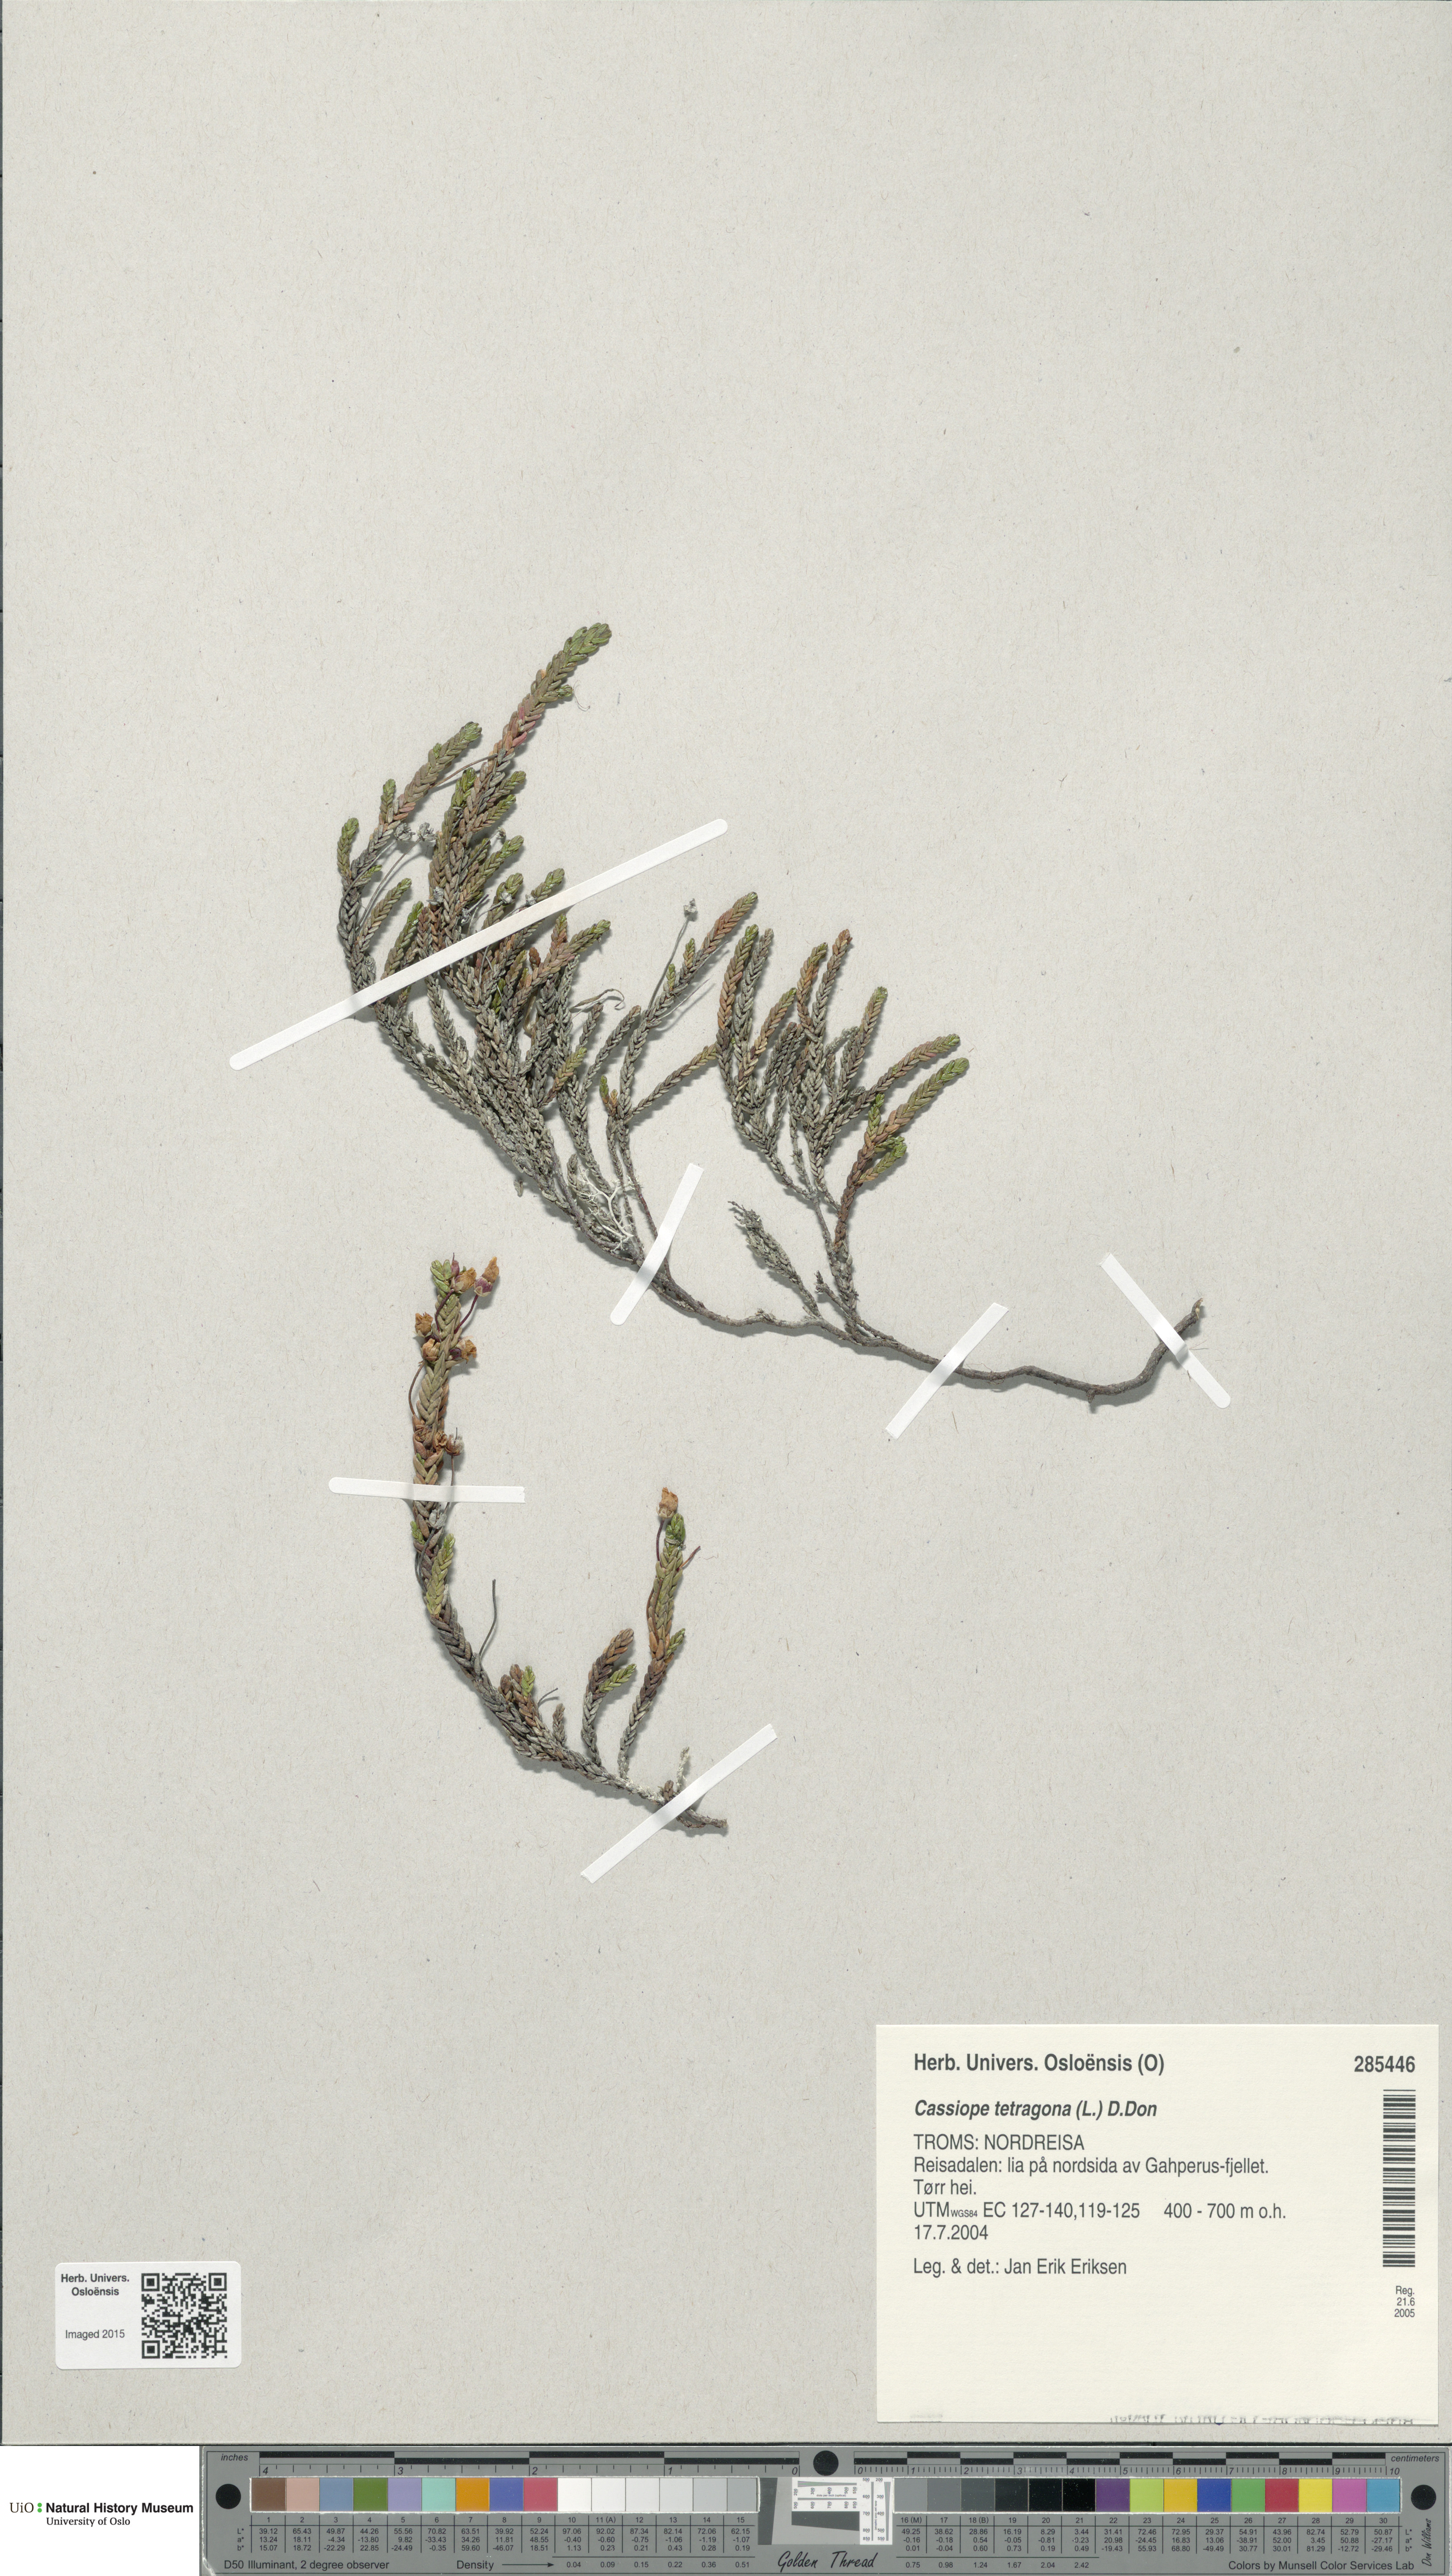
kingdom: Plantae
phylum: Tracheophyta
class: Magnoliopsida
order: Ericales
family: Ericaceae
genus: Cassiope
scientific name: Cassiope tetragona
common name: Arctic bell heather
